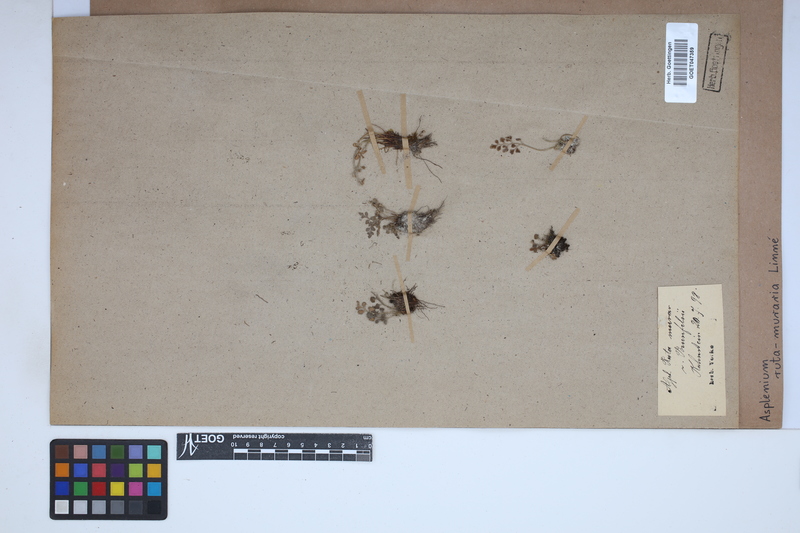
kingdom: Plantae
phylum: Tracheophyta
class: Polypodiopsida
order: Polypodiales
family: Aspleniaceae
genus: Asplenium
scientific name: Asplenium ruta-muraria
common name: Wall-rue
